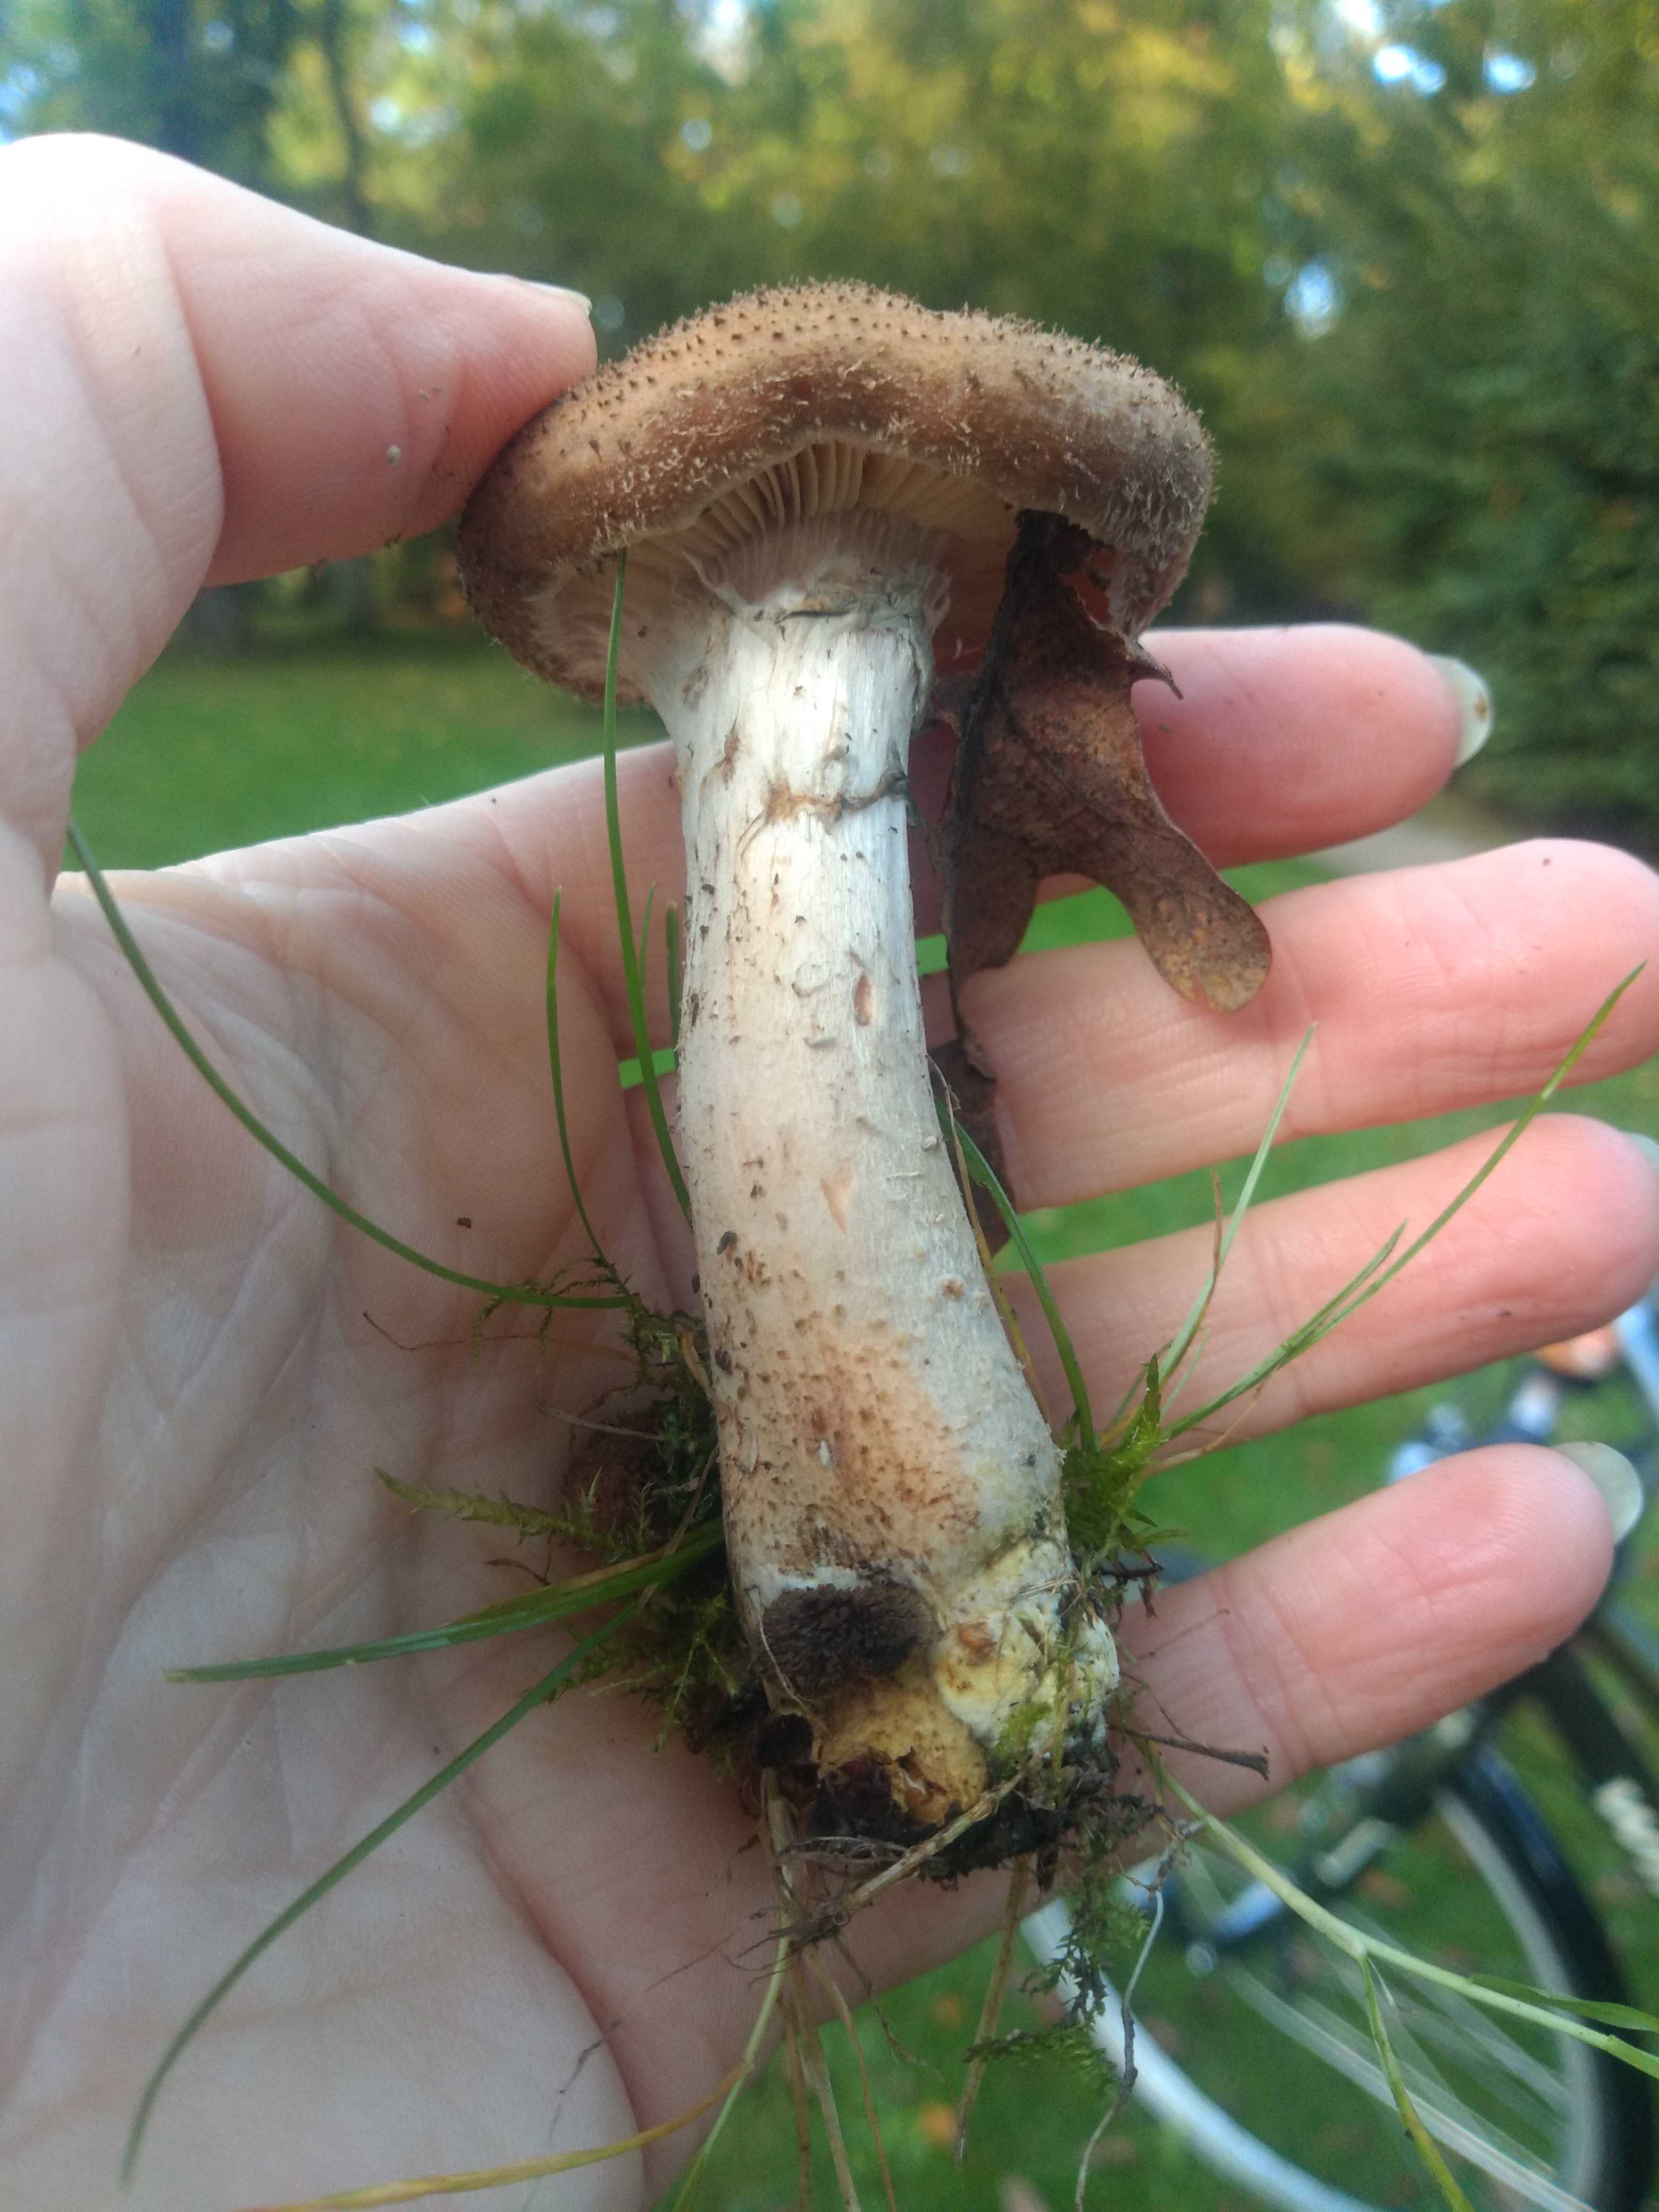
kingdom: Fungi
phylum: Basidiomycota
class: Agaricomycetes
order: Agaricales
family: Physalacriaceae
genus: Armillaria
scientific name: Armillaria
